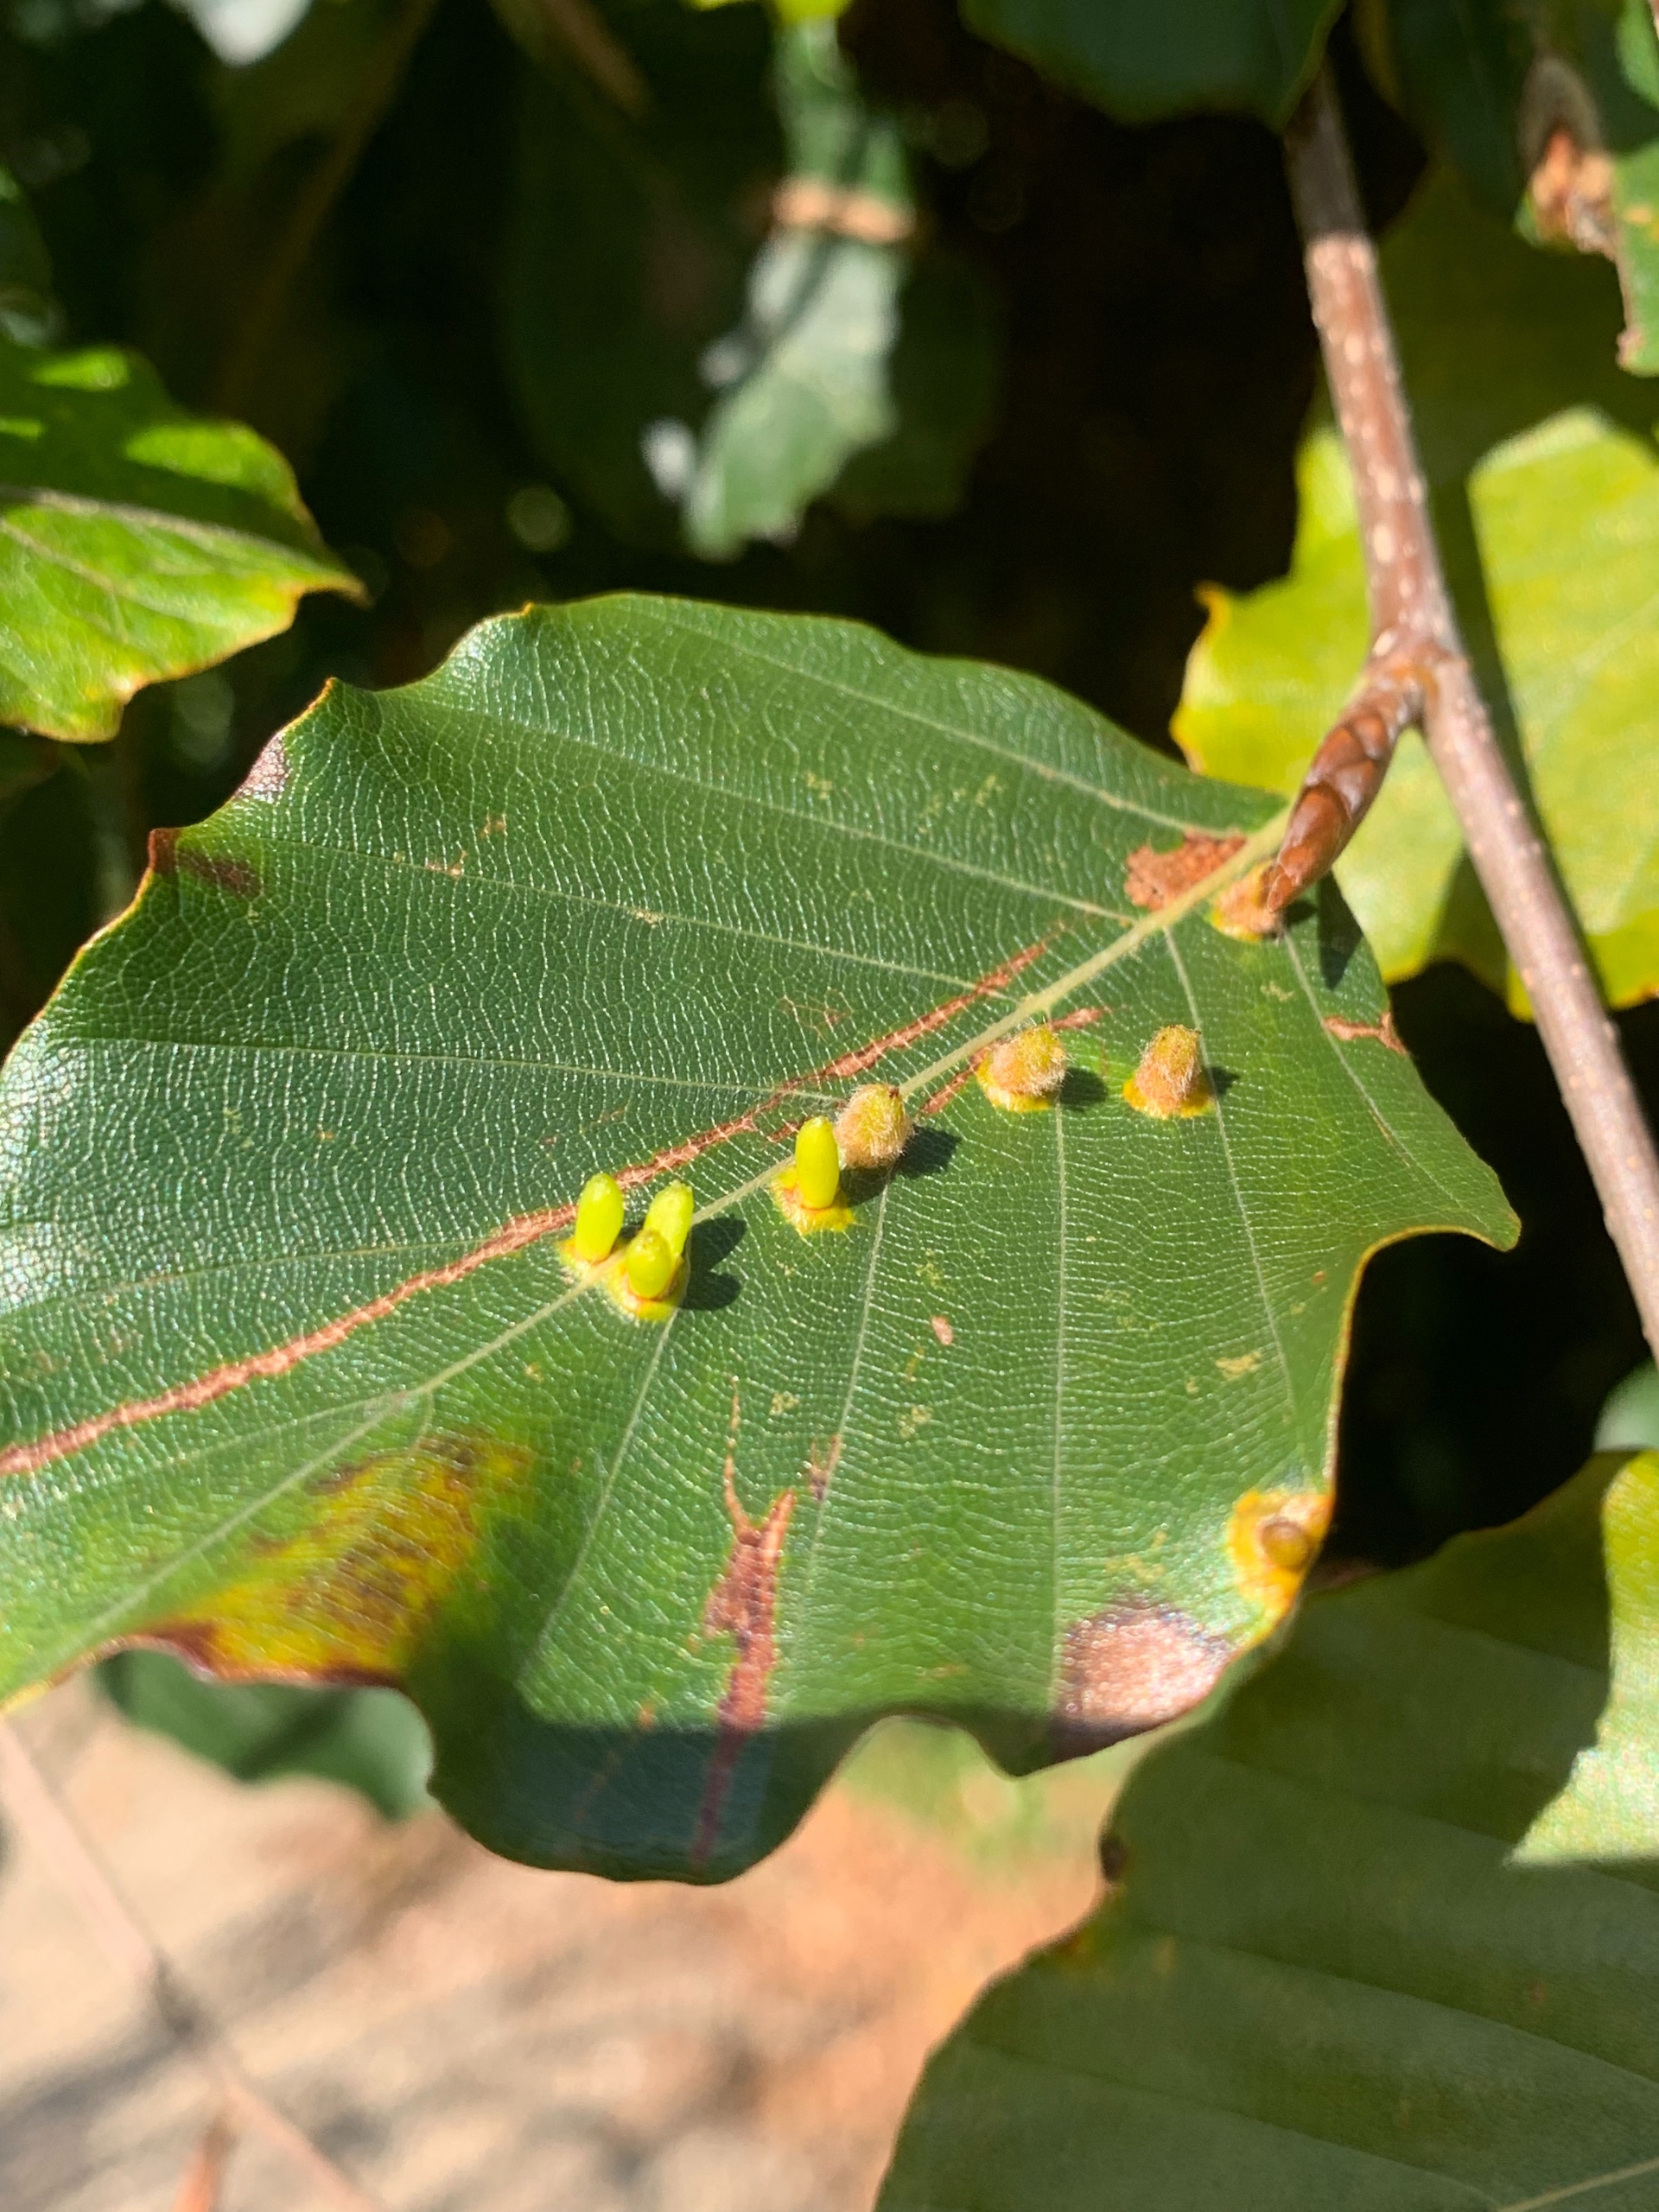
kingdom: Animalia
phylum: Arthropoda
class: Insecta
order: Diptera
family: Cecidomyiidae
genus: Hartigiola
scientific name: Hartigiola annulipes
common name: Skovtroldegalmyg
